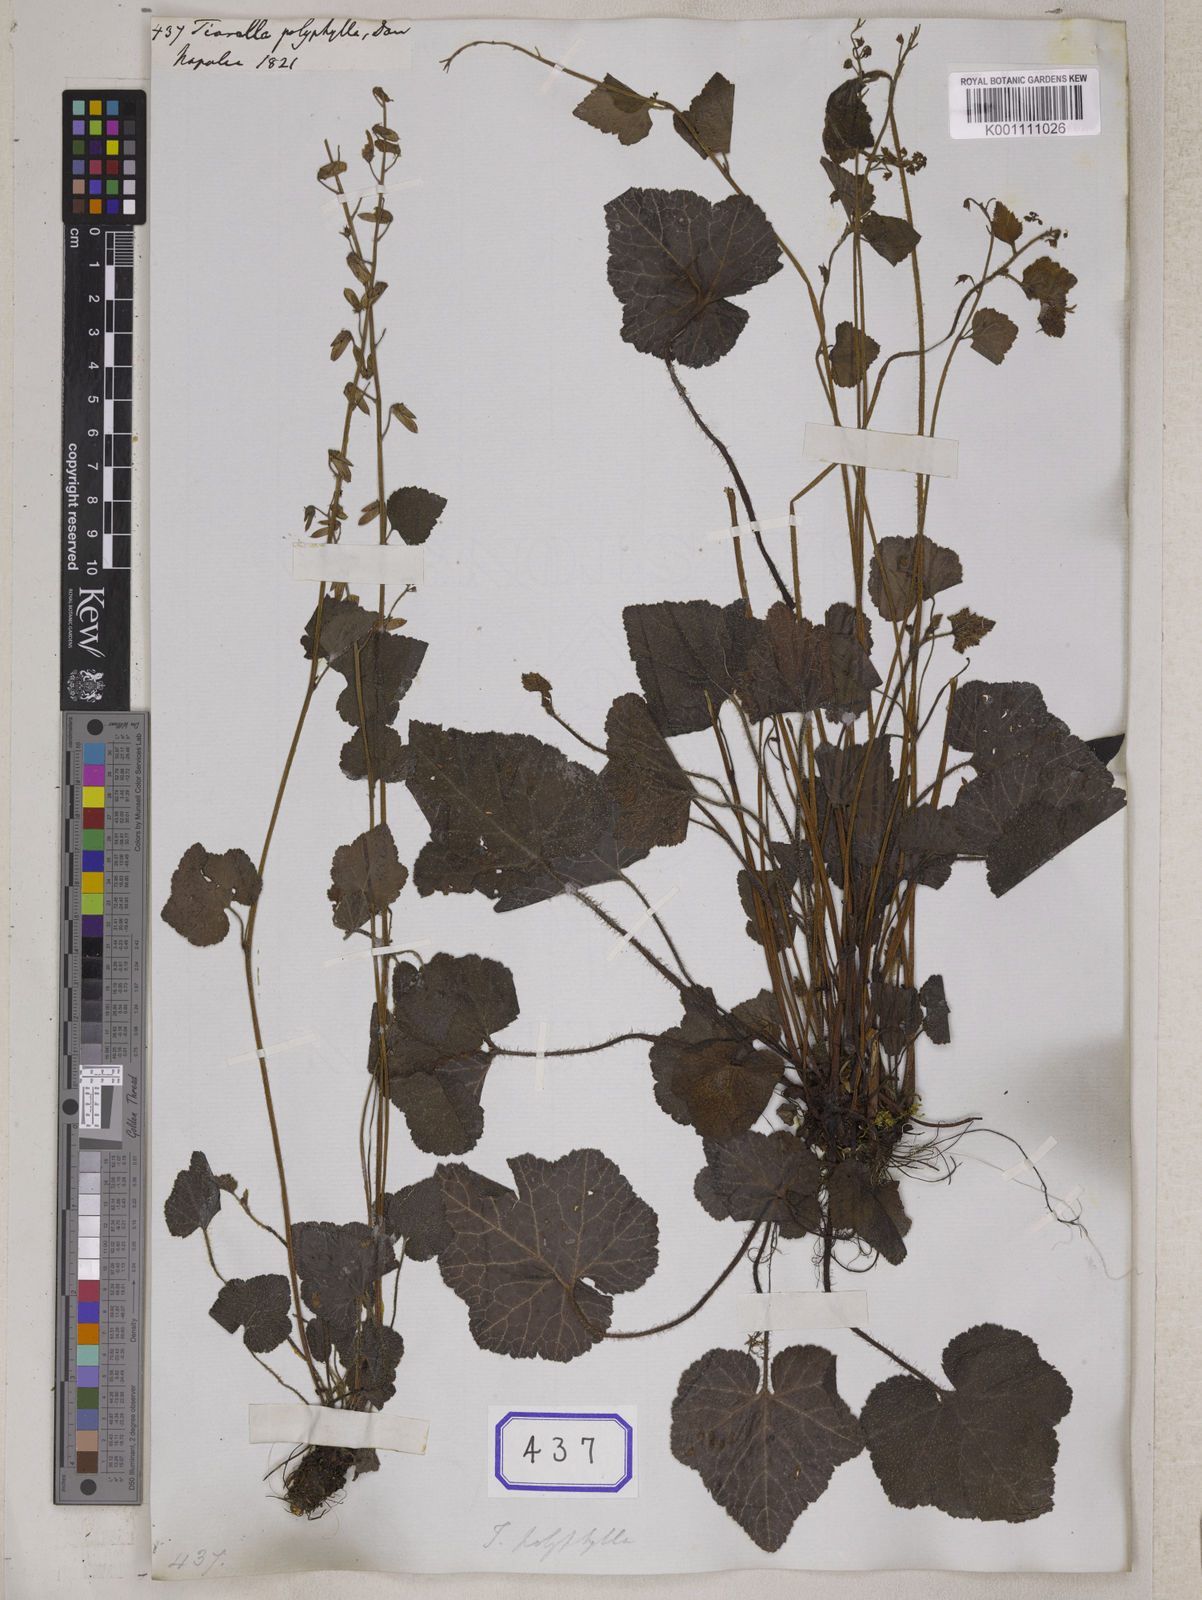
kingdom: Plantae
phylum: Tracheophyta
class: Magnoliopsida
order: Saxifragales
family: Saxifragaceae
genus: Tiarella
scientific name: Tiarella polyphylla
